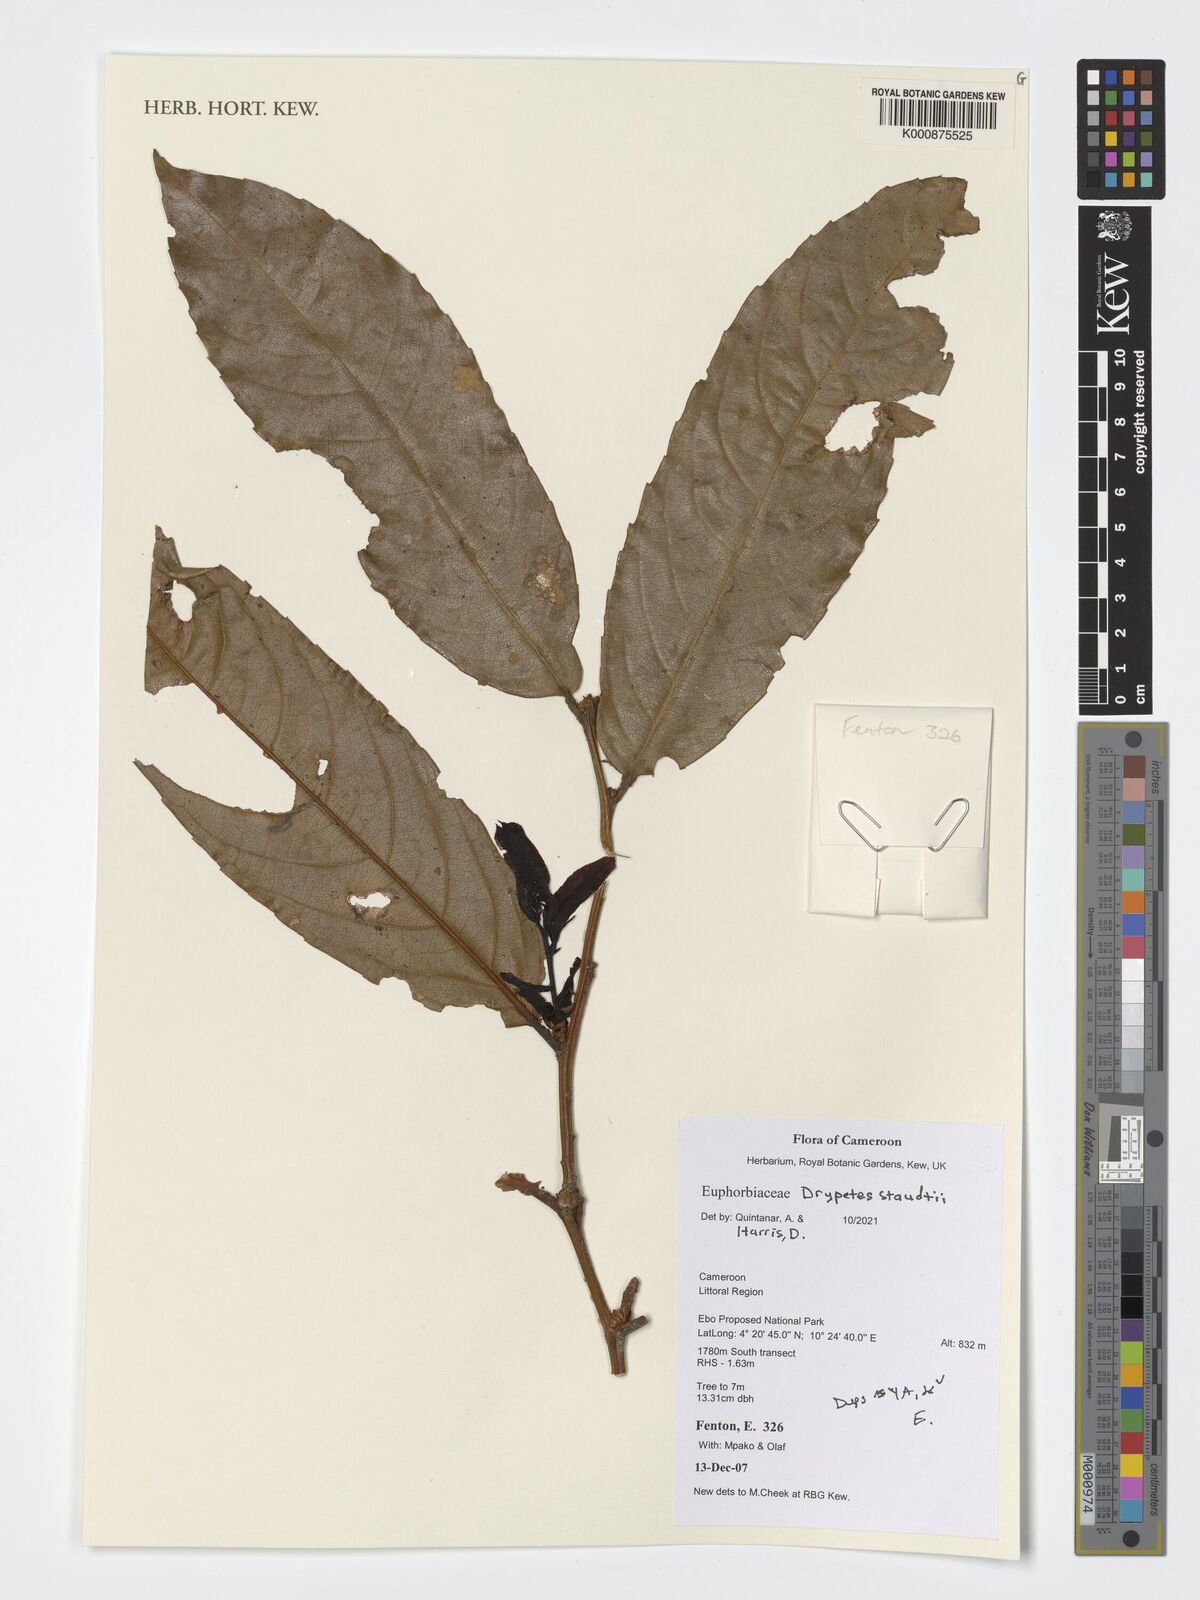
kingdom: Plantae
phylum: Tracheophyta
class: Magnoliopsida
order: Malpighiales
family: Putranjivaceae
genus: Drypetes
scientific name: Drypetes staudtii
